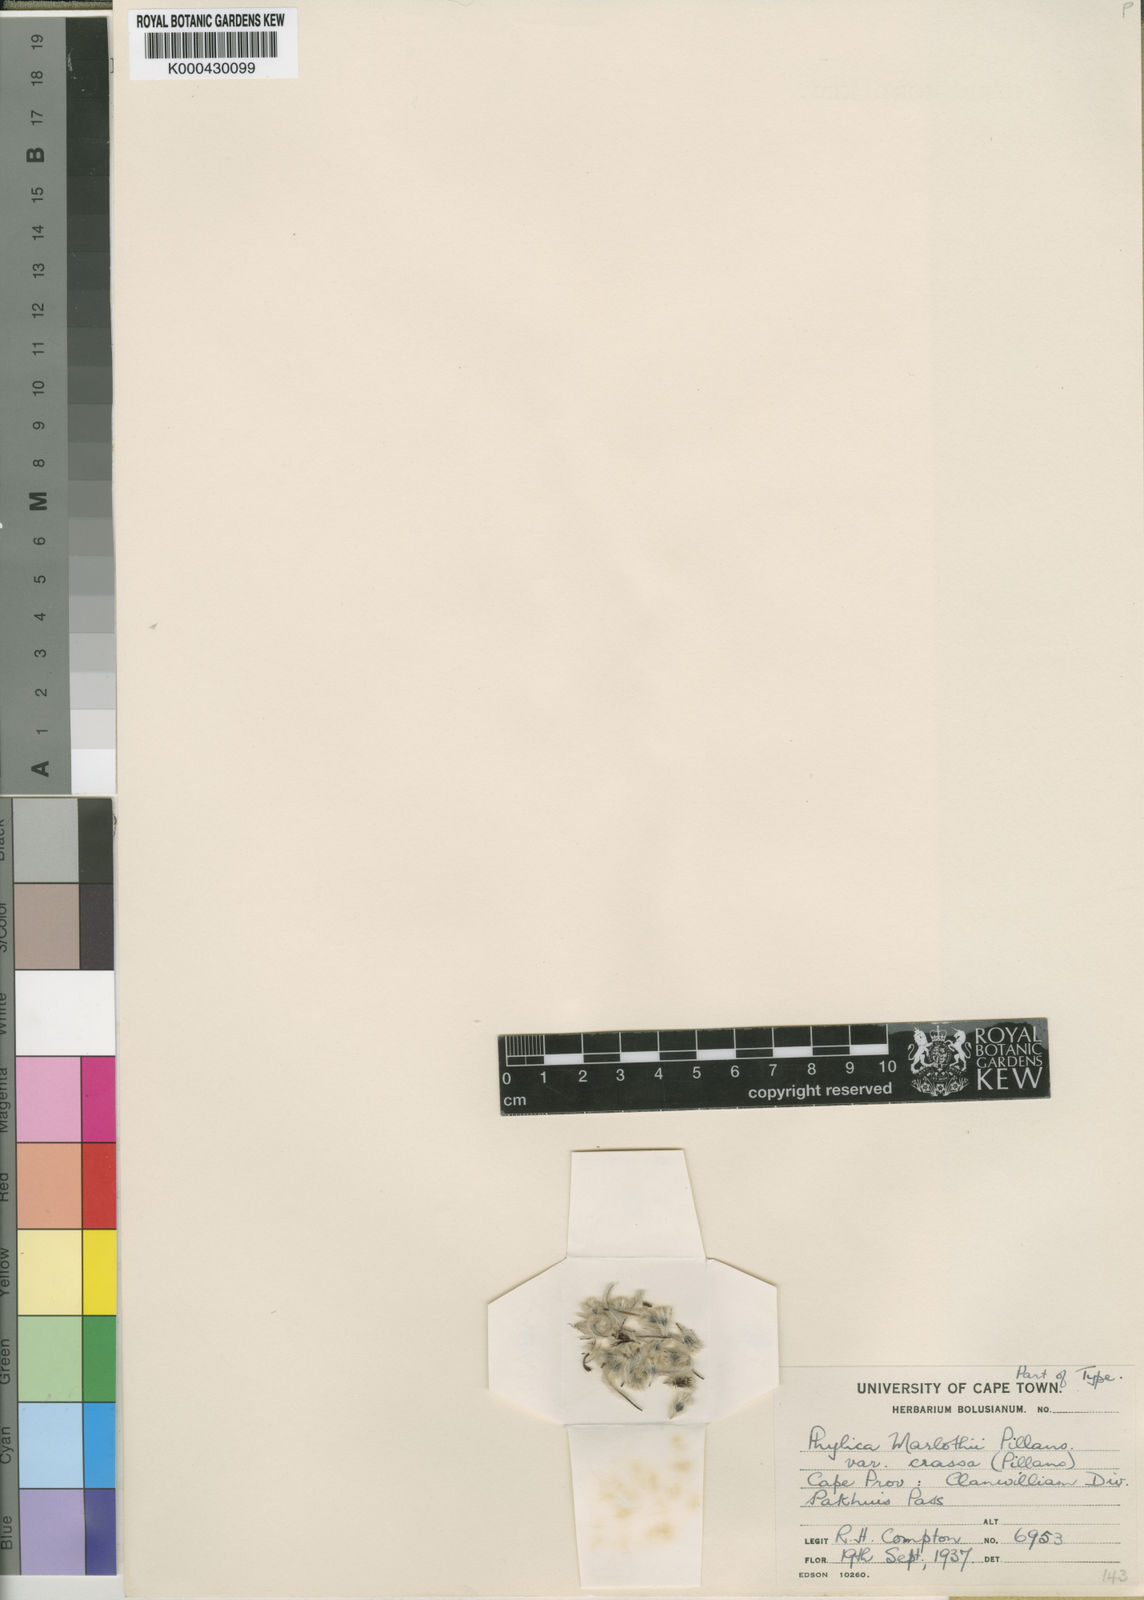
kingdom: Plantae
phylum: Tracheophyta
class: Magnoliopsida
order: Rosales
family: Rhamnaceae
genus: Phylica
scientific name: Phylica marlothii
